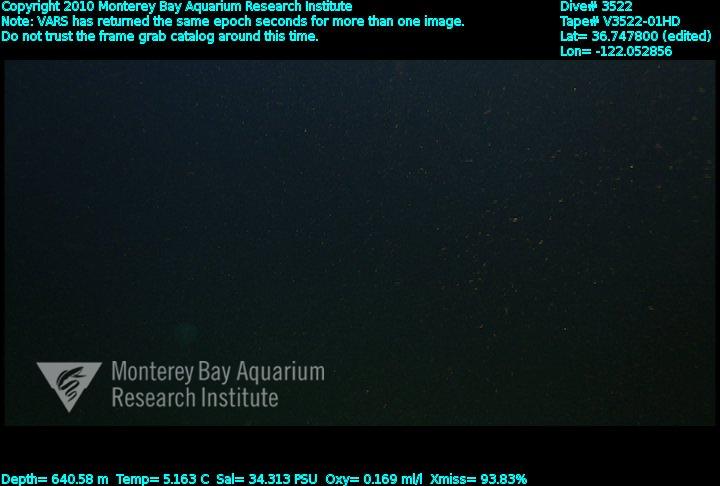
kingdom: Animalia
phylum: Porifera
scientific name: Porifera
